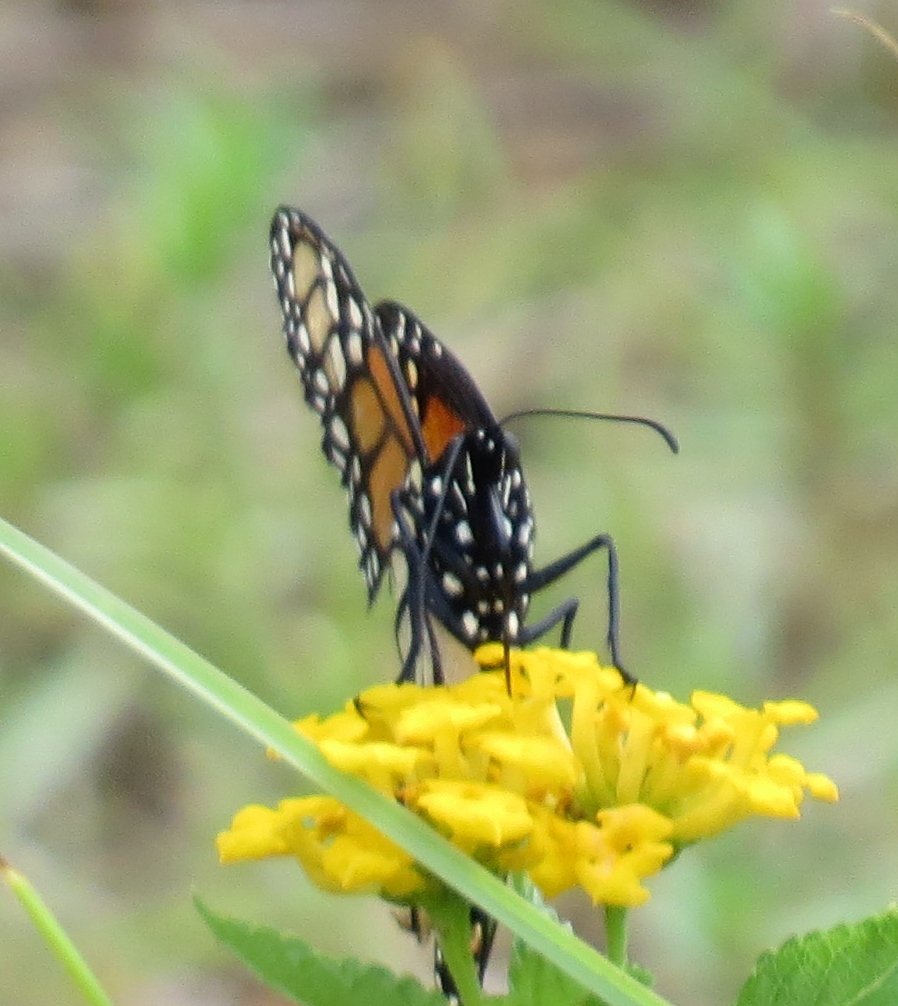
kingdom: Animalia
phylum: Arthropoda
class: Insecta
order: Lepidoptera
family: Nymphalidae
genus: Danaus
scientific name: Danaus plexippus
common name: Monarch
